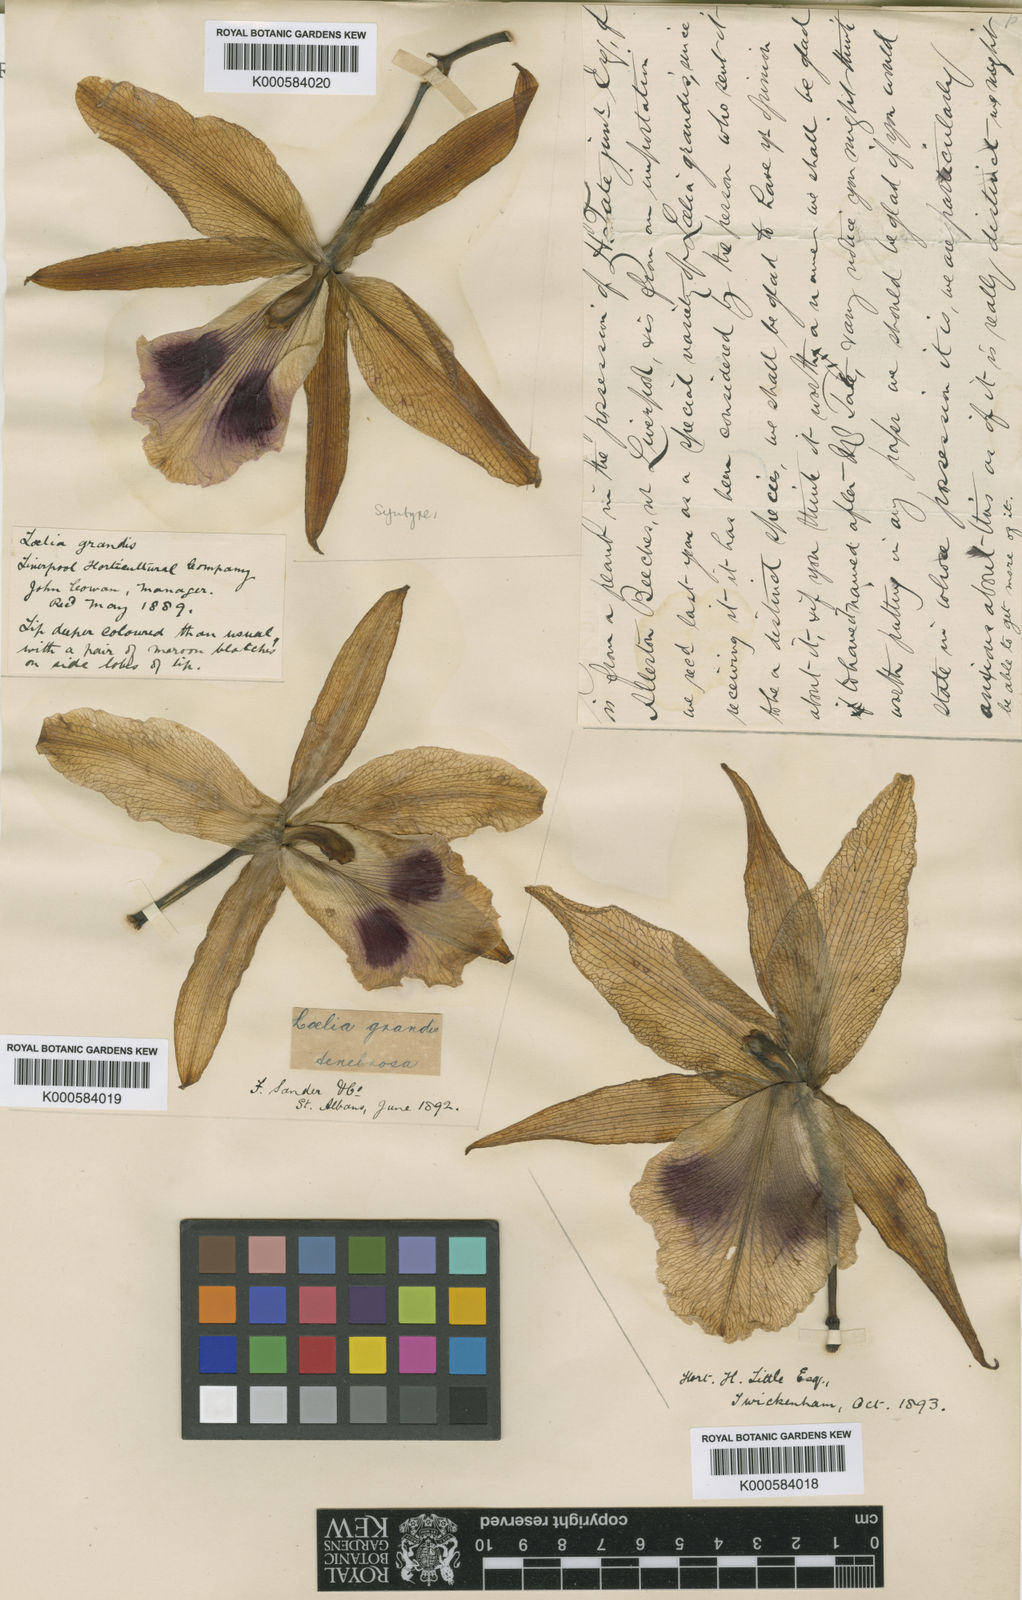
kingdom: Plantae
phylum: Tracheophyta
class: Liliopsida
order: Asparagales
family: Orchidaceae
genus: Cattleya
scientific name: Cattleya tenebrosa
